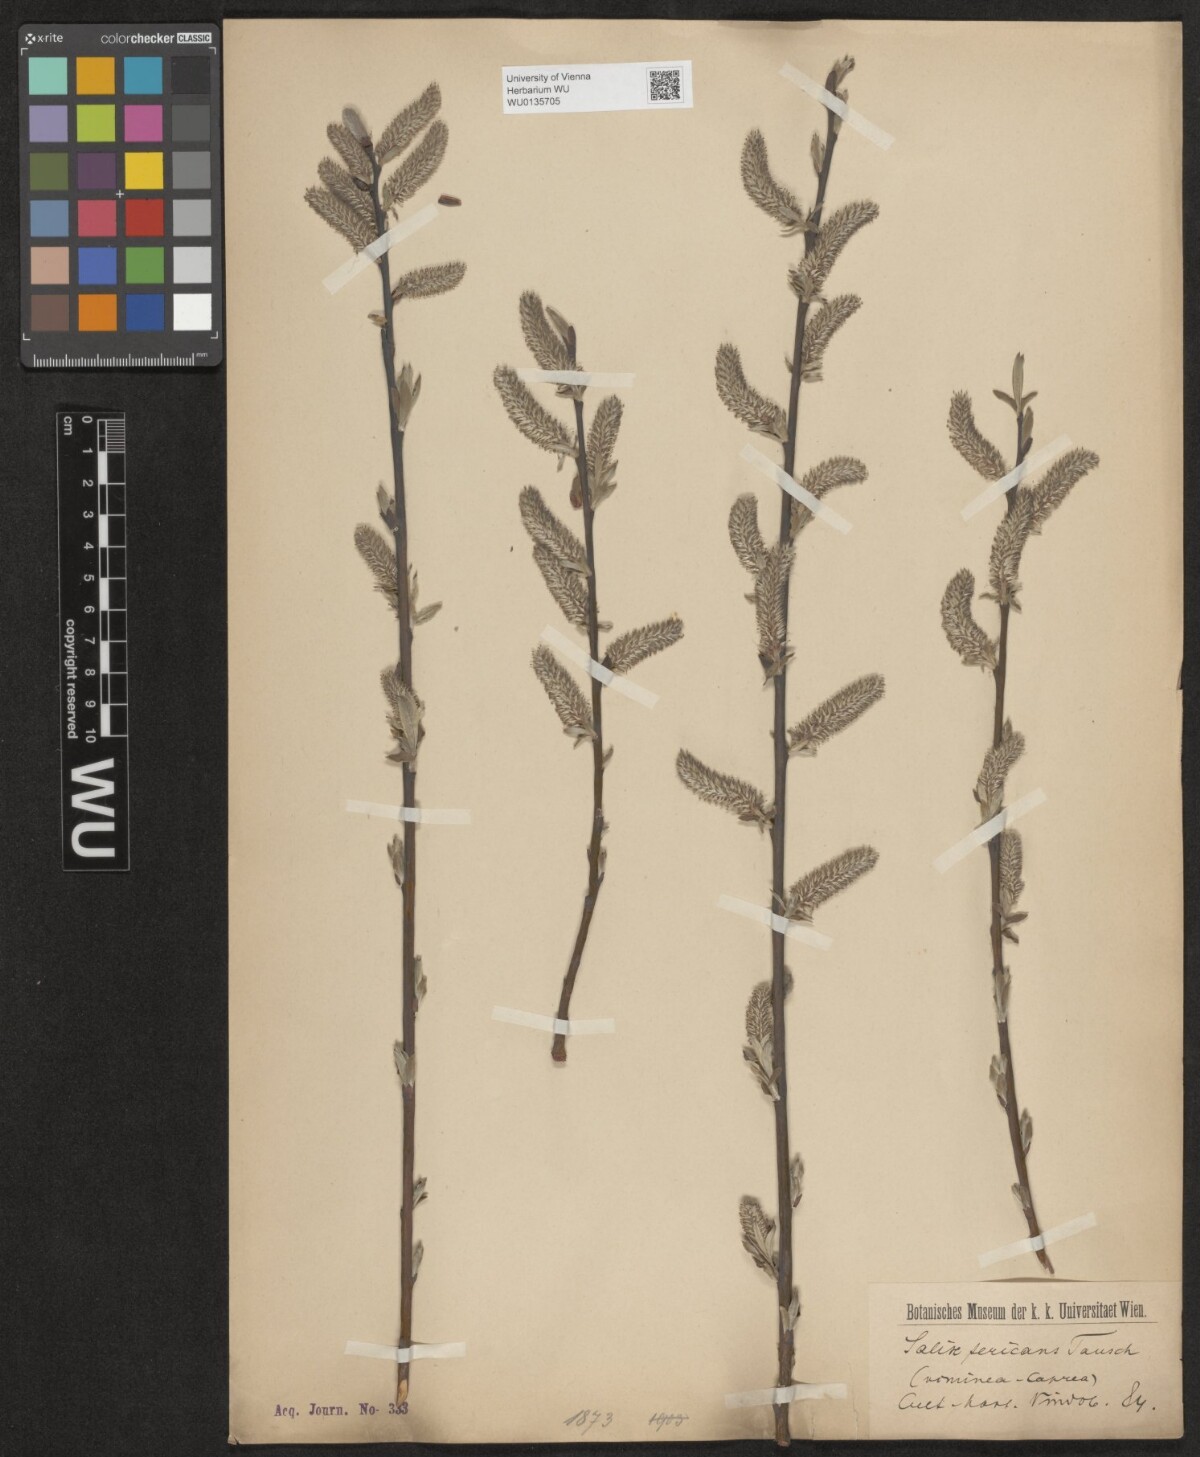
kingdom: Plantae
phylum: Tracheophyta
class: Magnoliopsida
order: Malpighiales
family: Salicaceae
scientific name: Salicaceae
